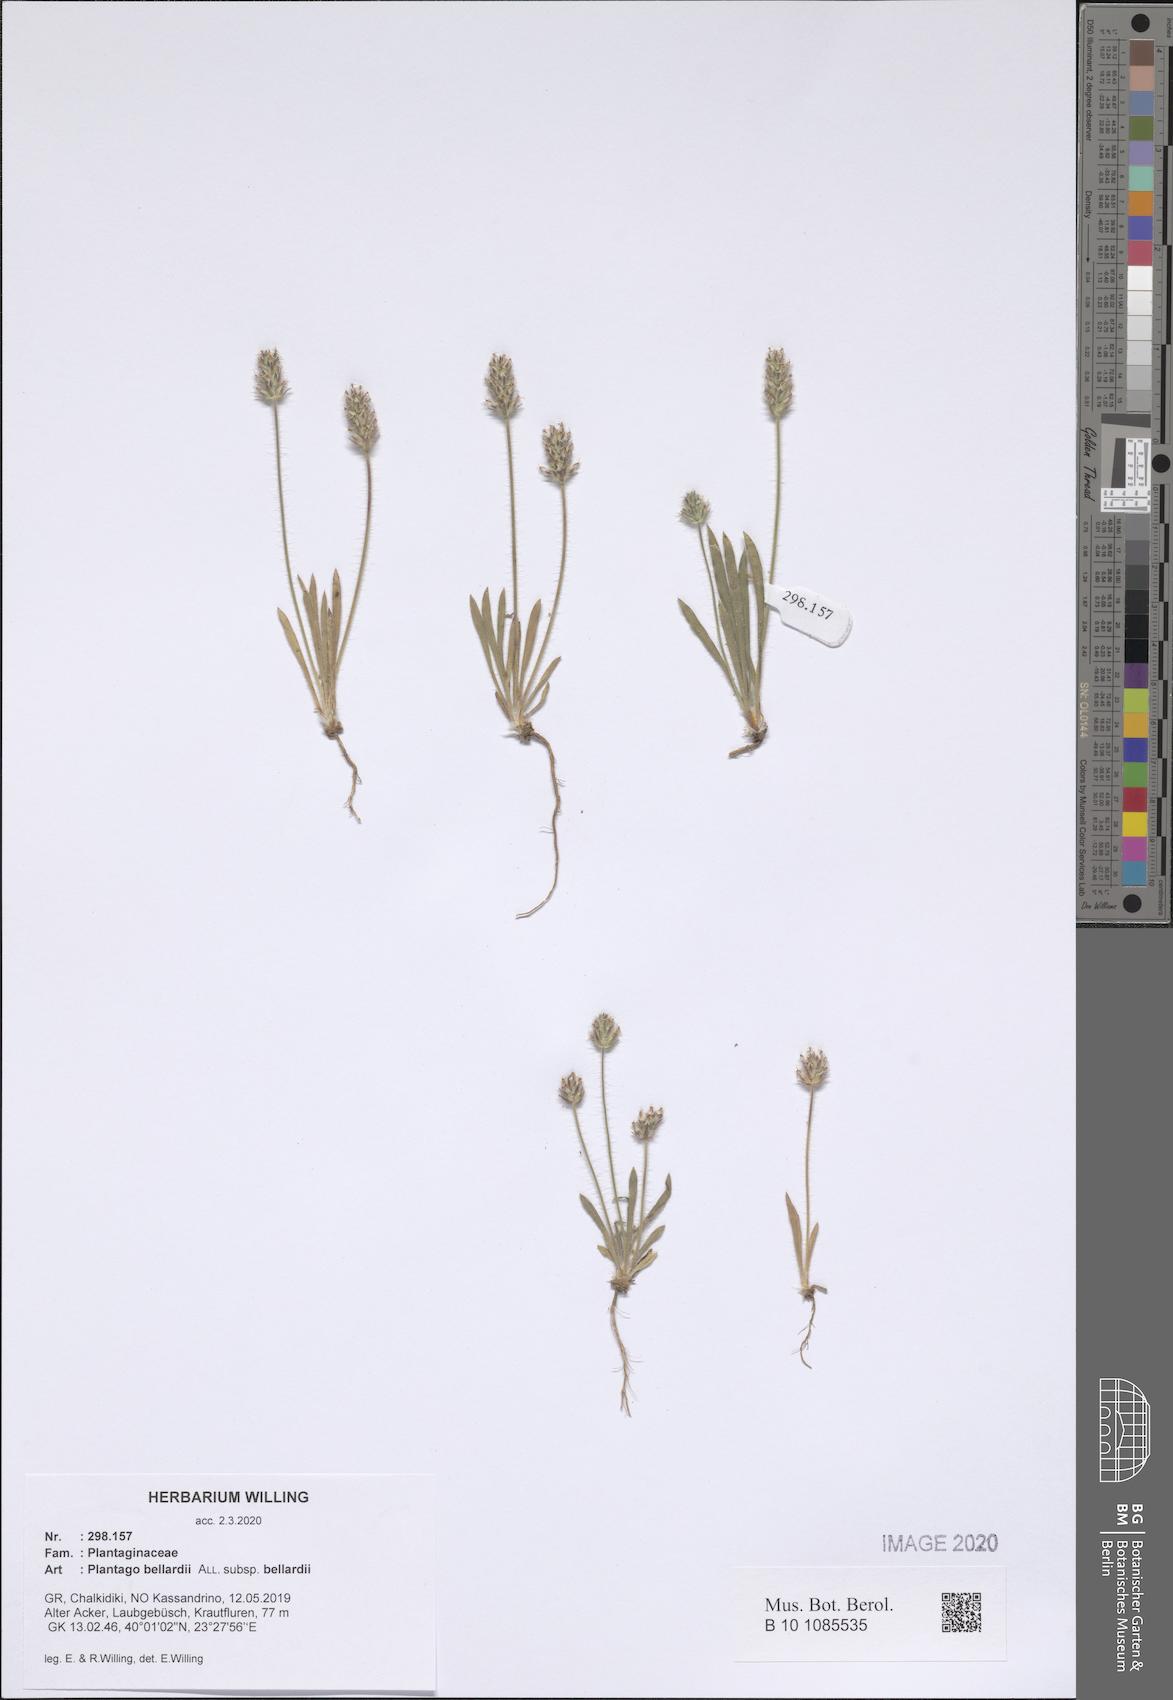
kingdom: Plantae
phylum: Tracheophyta
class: Magnoliopsida
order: Lamiales
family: Plantaginaceae
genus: Plantago
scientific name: Plantago bellardii
